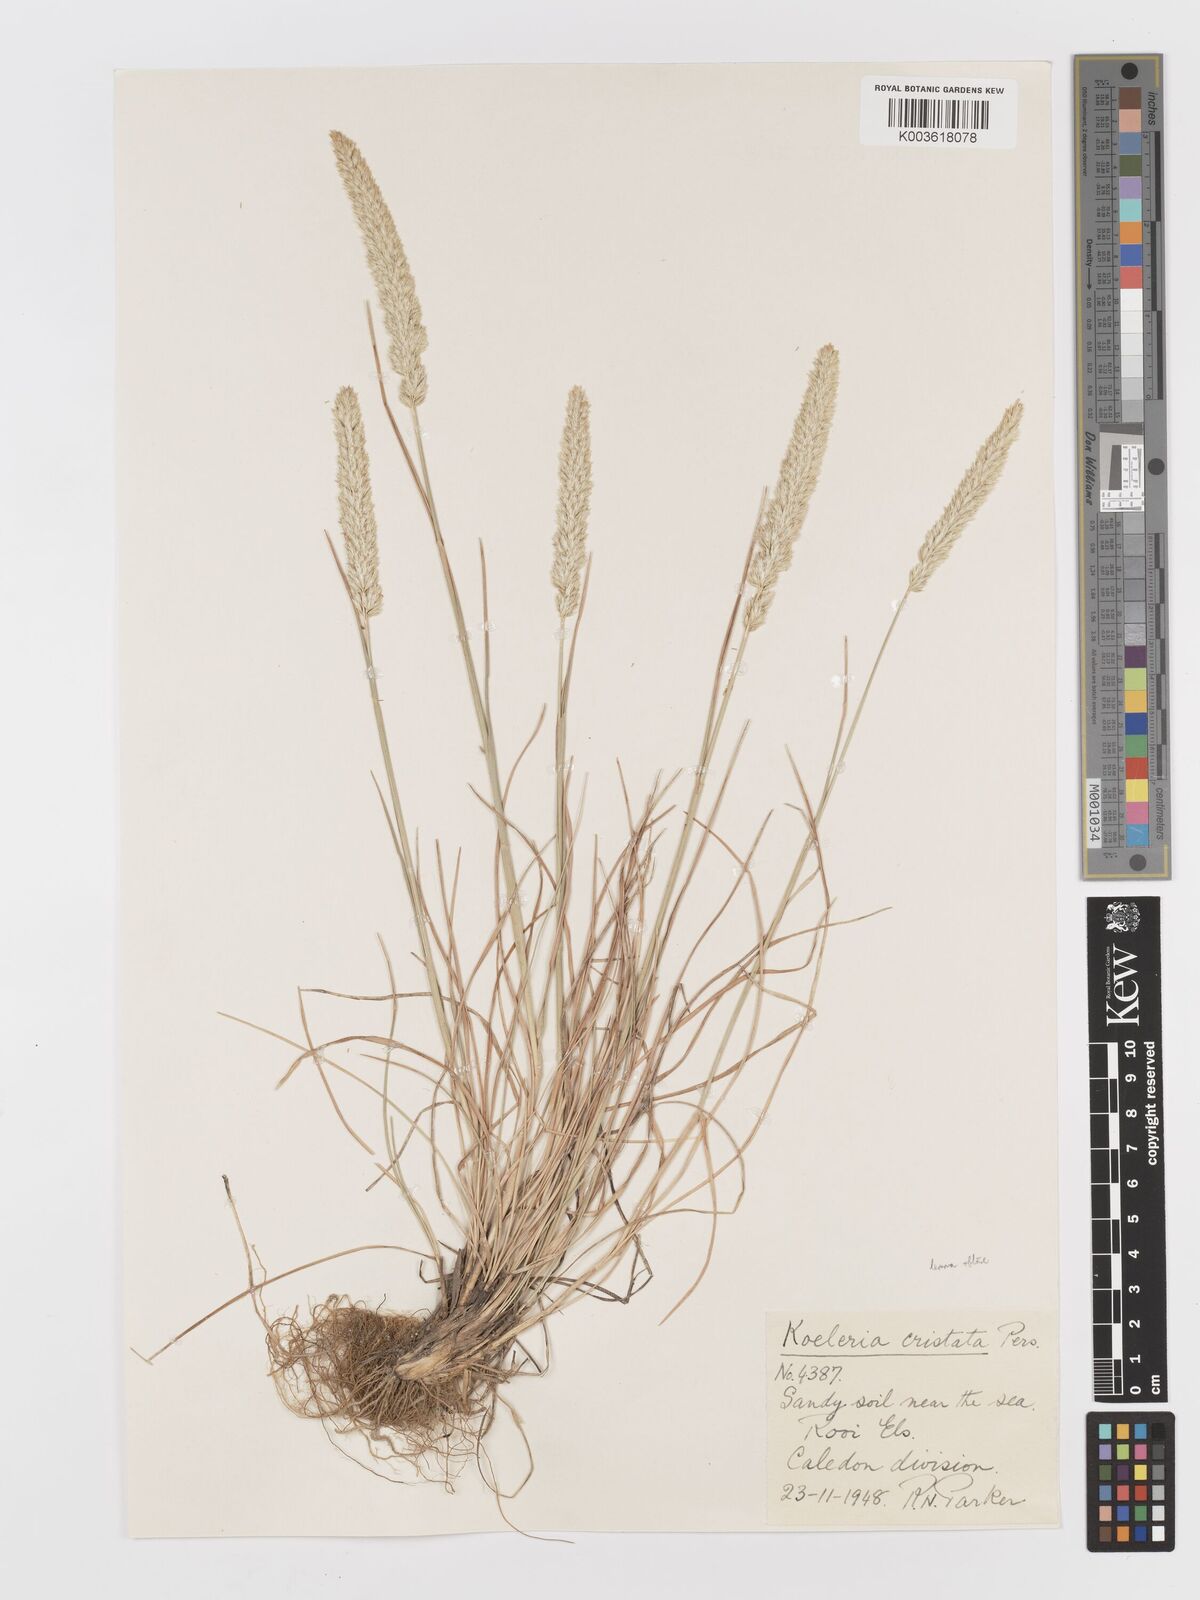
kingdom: Plantae
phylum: Tracheophyta
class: Liliopsida
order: Poales
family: Poaceae
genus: Koeleria
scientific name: Koeleria capensis
